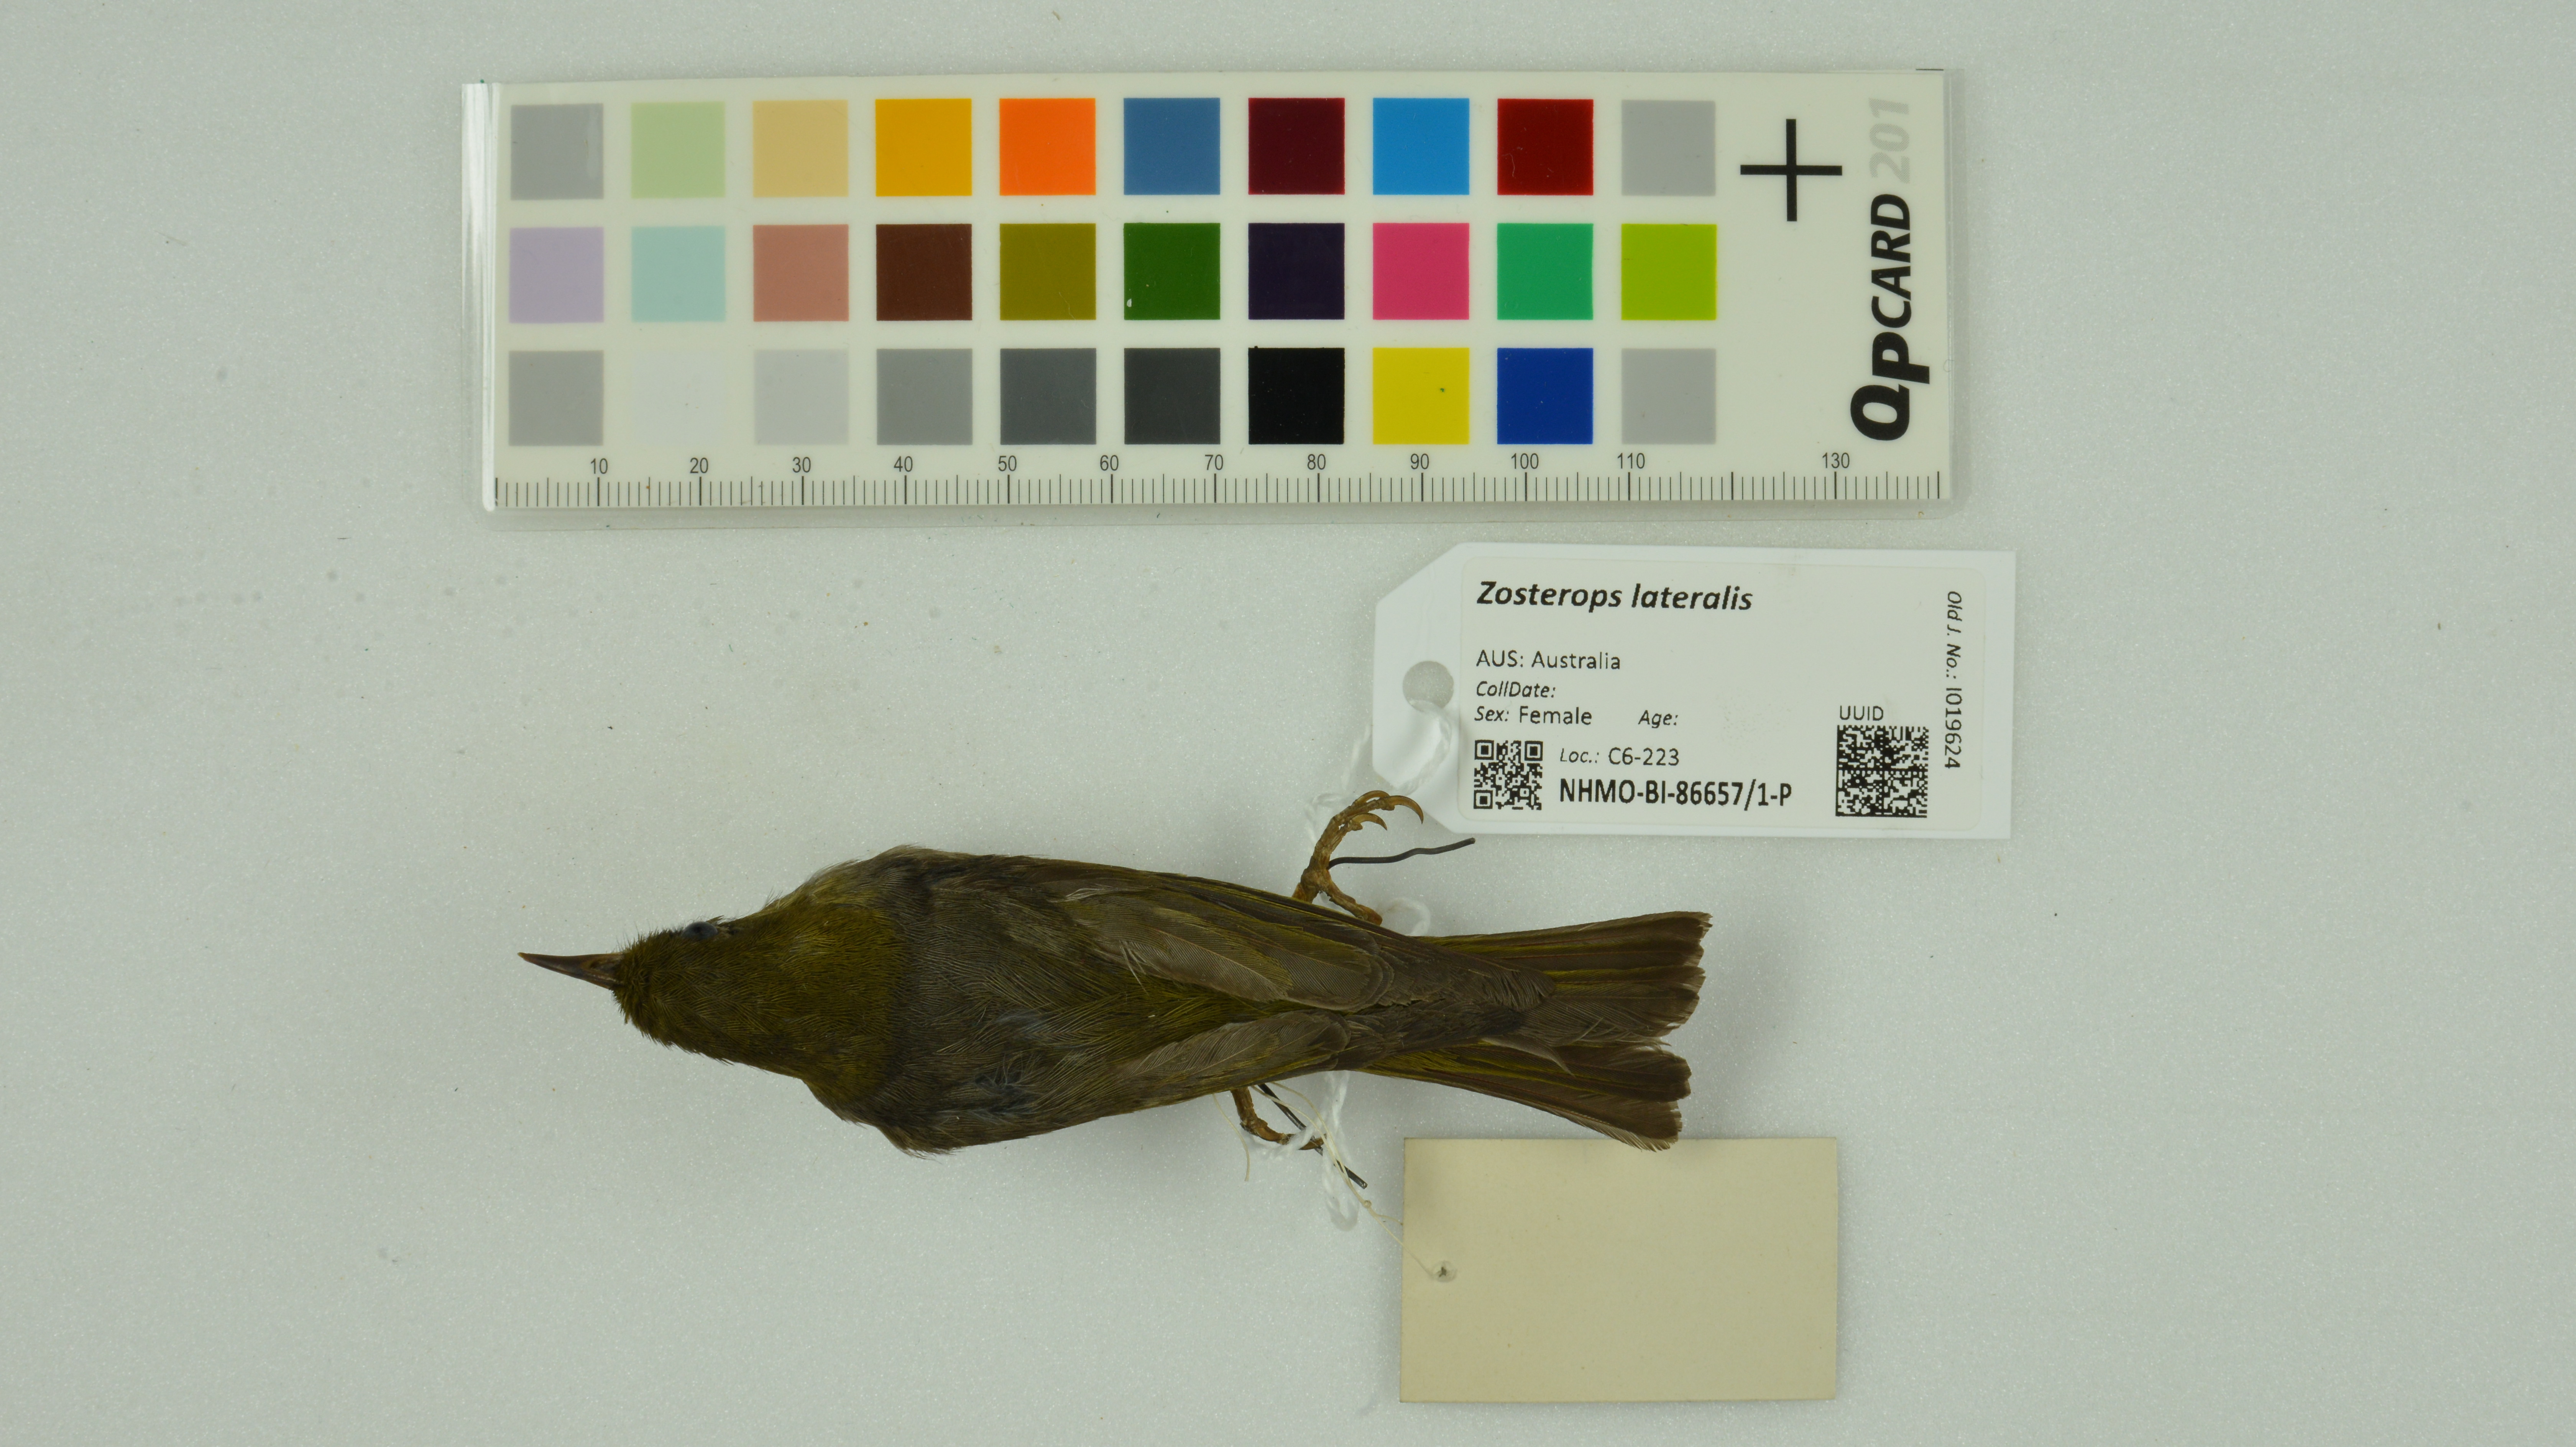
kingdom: Animalia
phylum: Chordata
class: Aves
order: Passeriformes
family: Zosteropidae
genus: Zosterops
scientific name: Zosterops lateralis
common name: Silvereye
